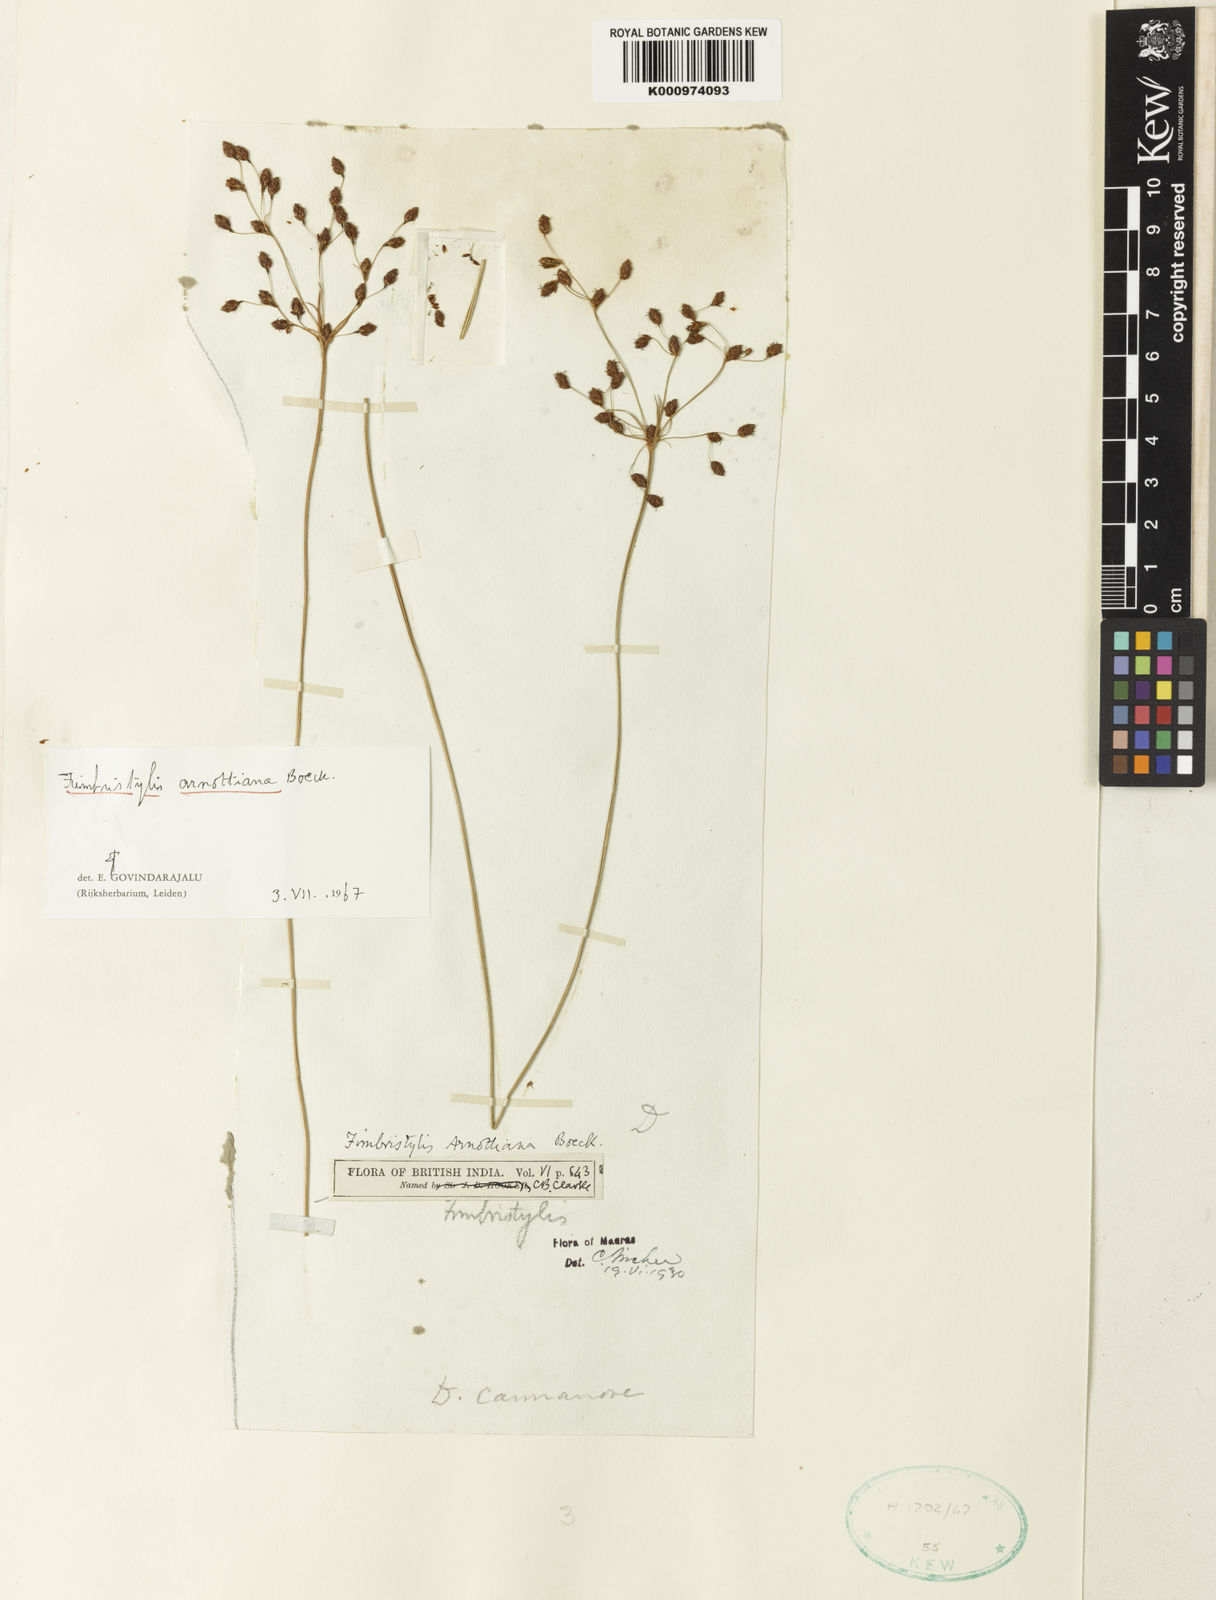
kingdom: Plantae
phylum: Tracheophyta
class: Liliopsida
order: Poales
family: Cyperaceae
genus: Fimbristylis
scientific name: Fimbristylis arnottiana
